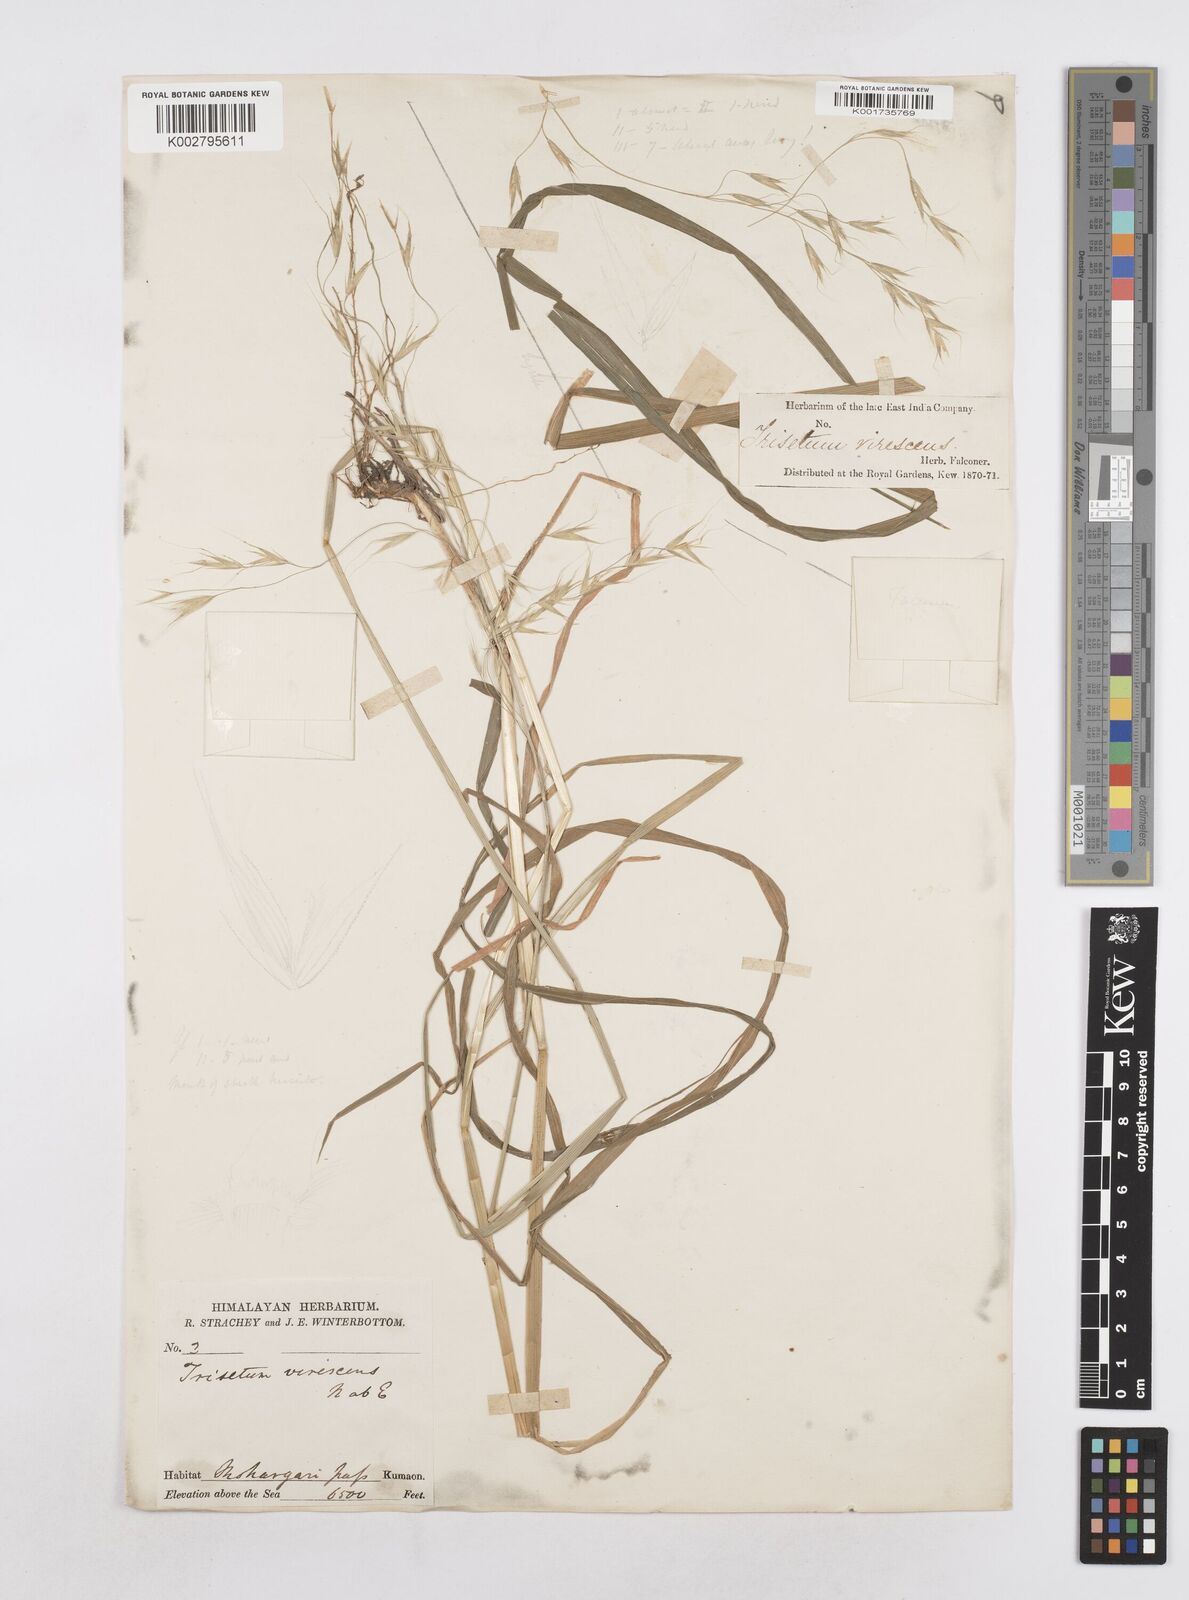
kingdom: Plantae
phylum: Tracheophyta
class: Liliopsida
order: Poales
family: Poaceae
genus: Helictotrichon
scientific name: Helictotrichon
